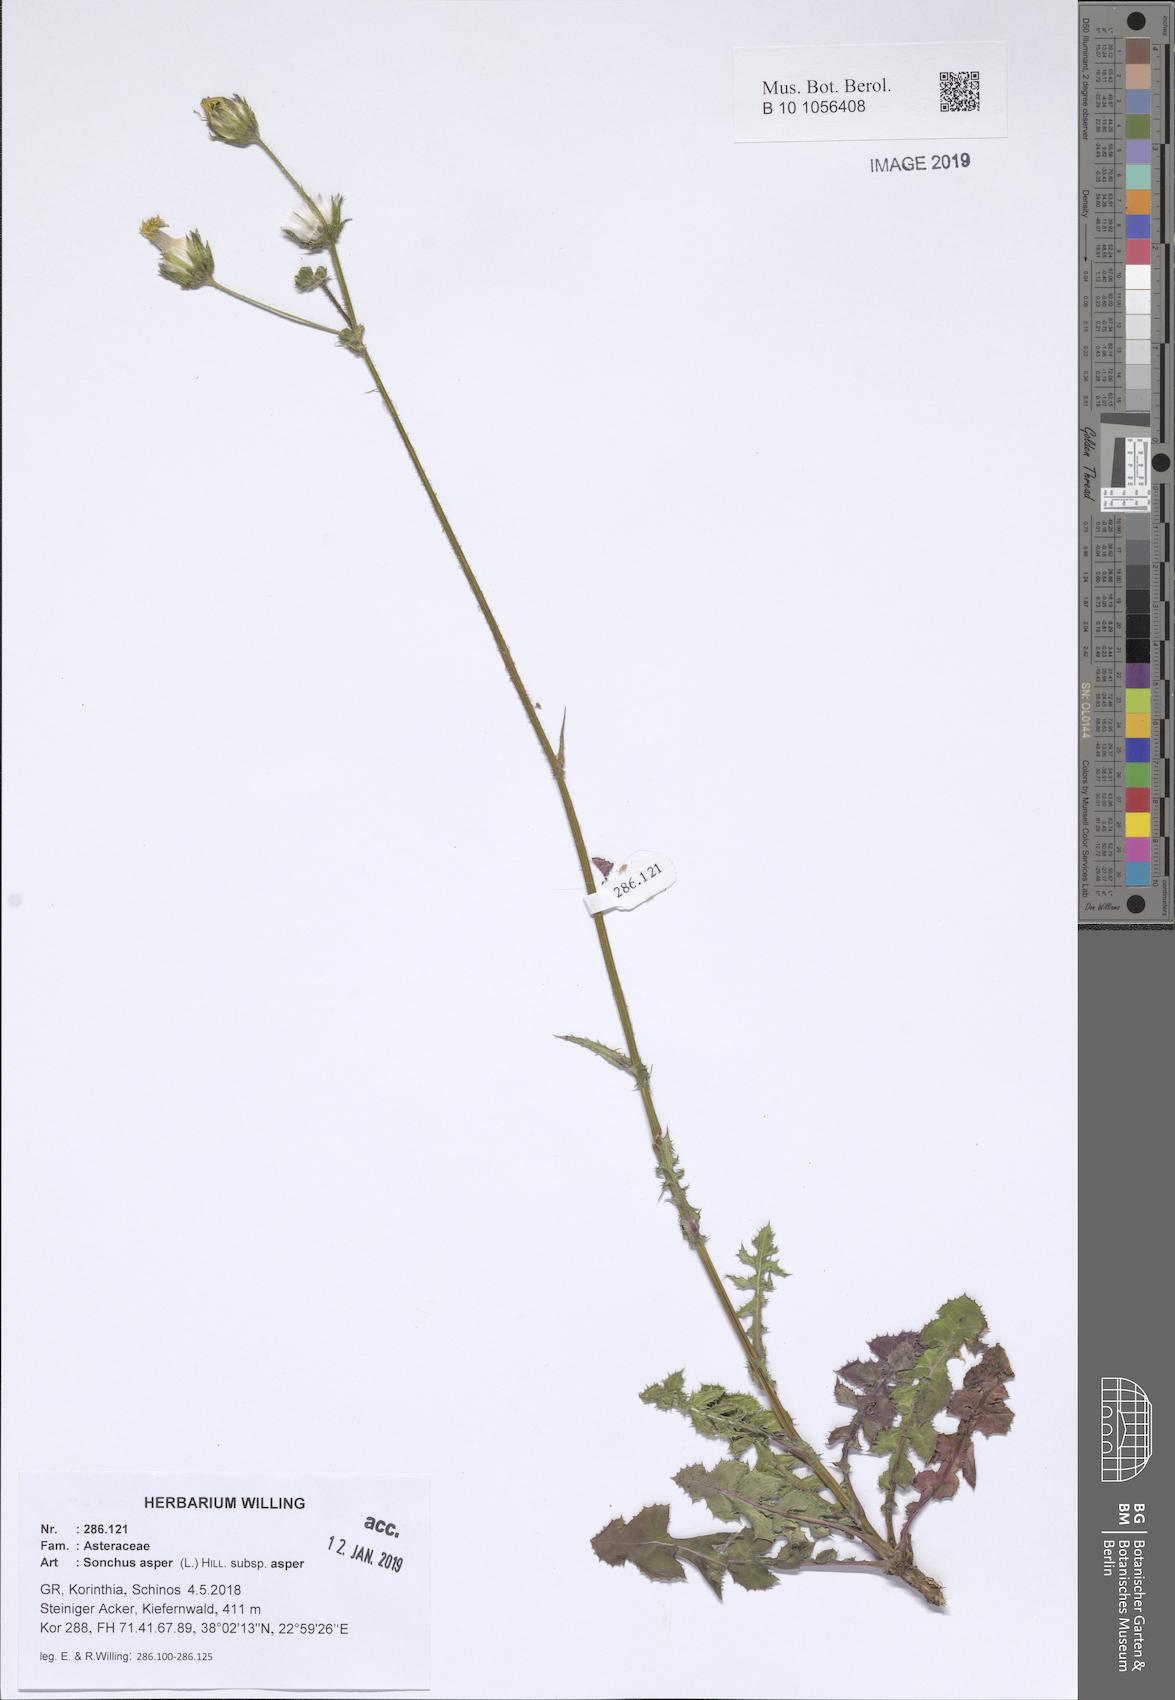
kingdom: Plantae
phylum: Tracheophyta
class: Magnoliopsida
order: Asterales
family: Asteraceae
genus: Sonchus
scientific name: Sonchus asper
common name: Prickly sow-thistle
